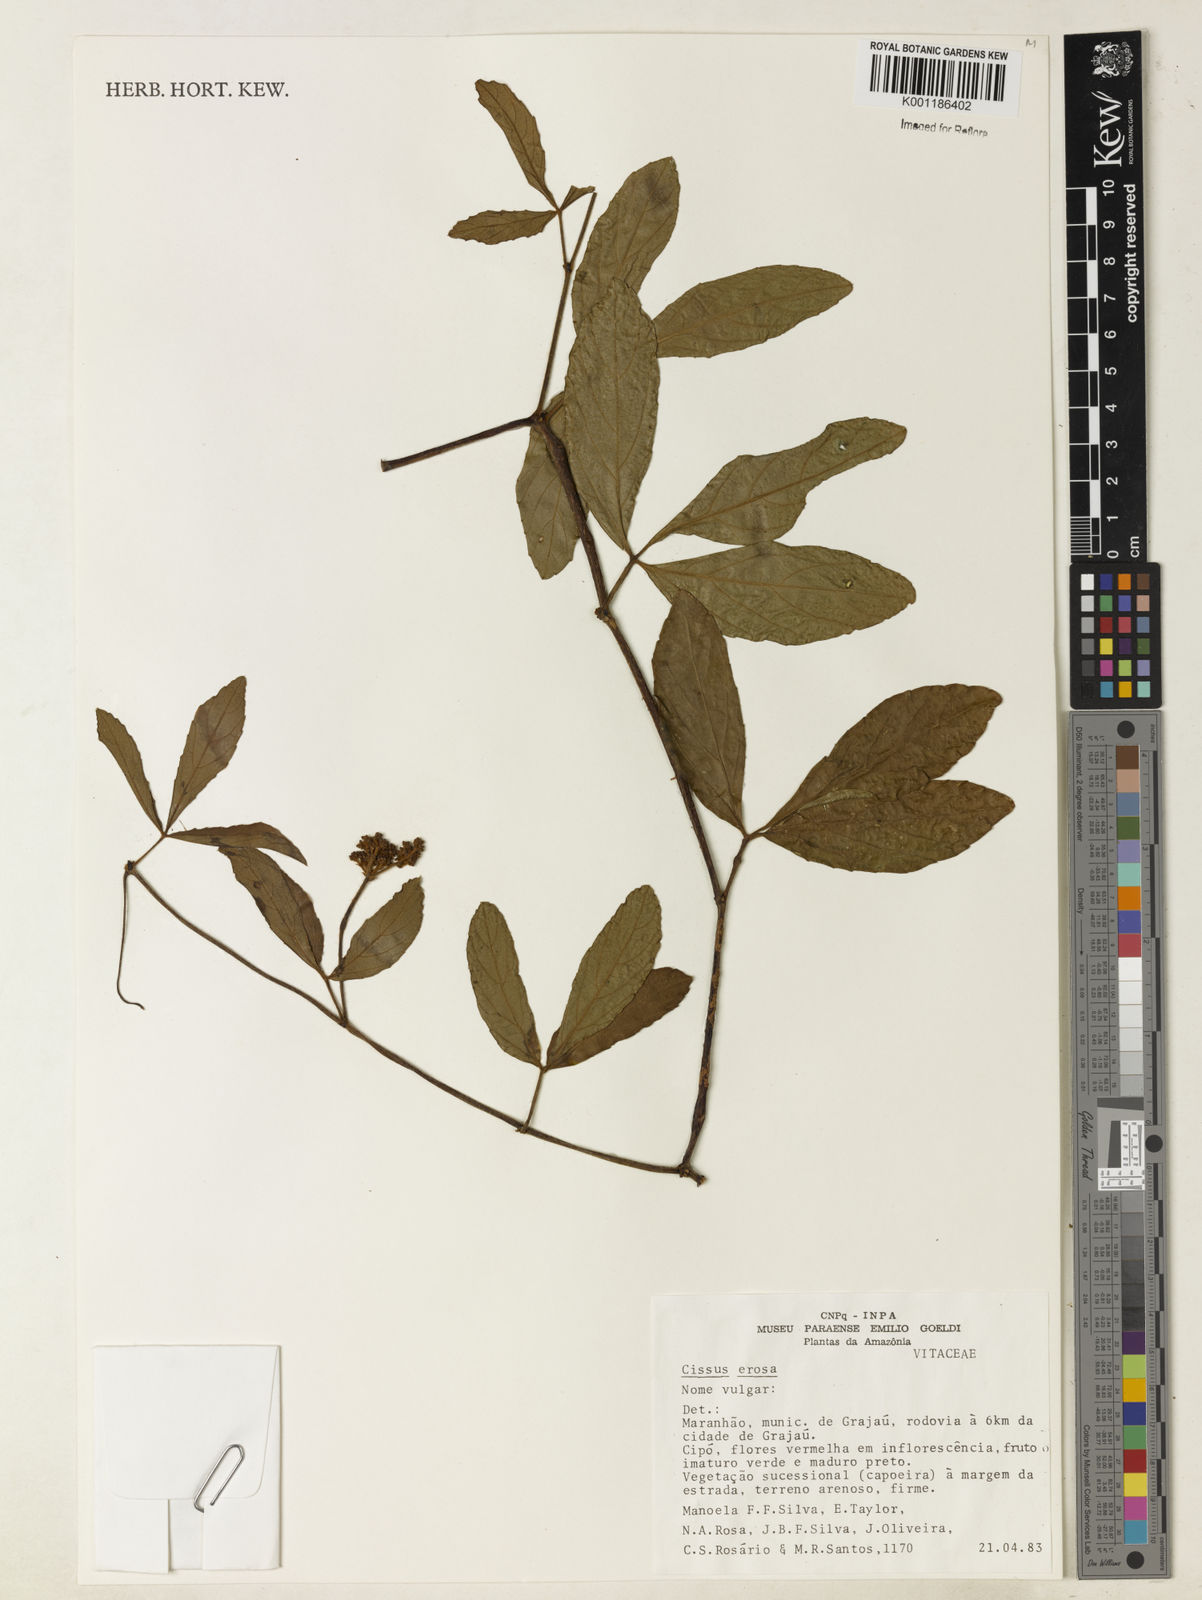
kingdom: Plantae
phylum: Tracheophyta
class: Magnoliopsida
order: Vitales
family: Vitaceae
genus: Cissus
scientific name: Cissus erosa
